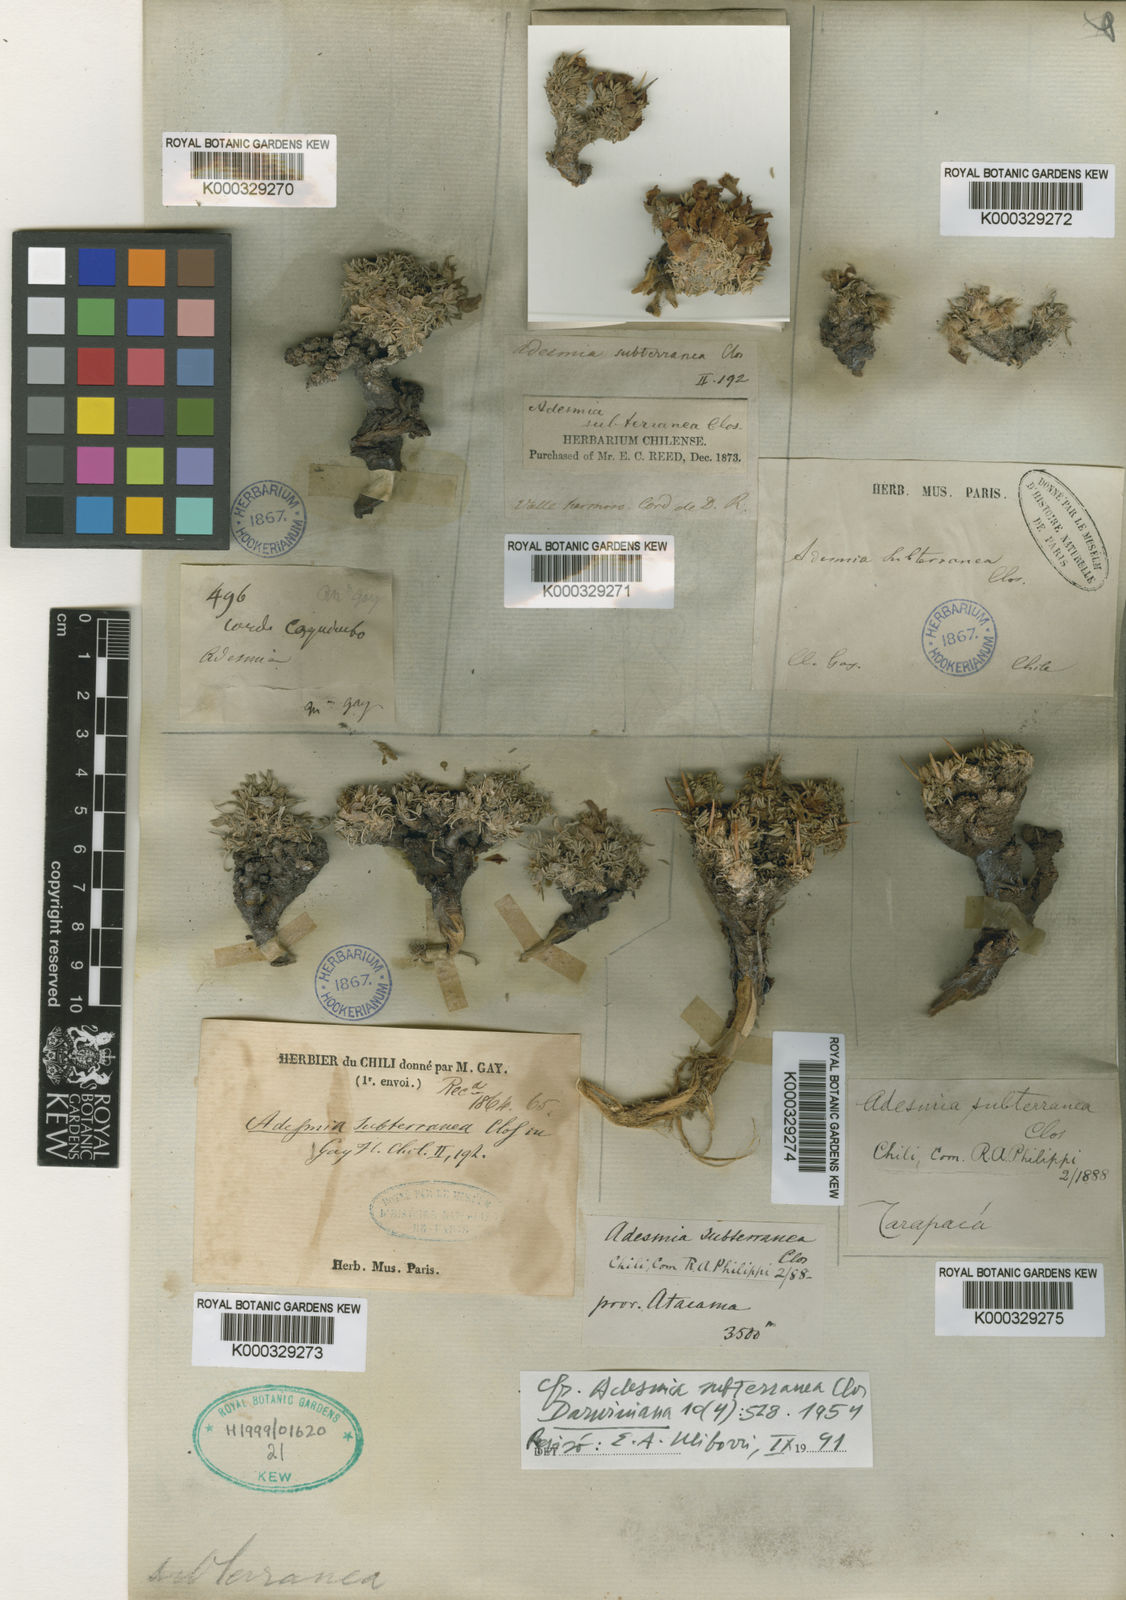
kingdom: Plantae
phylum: Tracheophyta
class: Magnoliopsida
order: Fabales
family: Fabaceae
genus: Adesmia
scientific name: Adesmia subterranea
